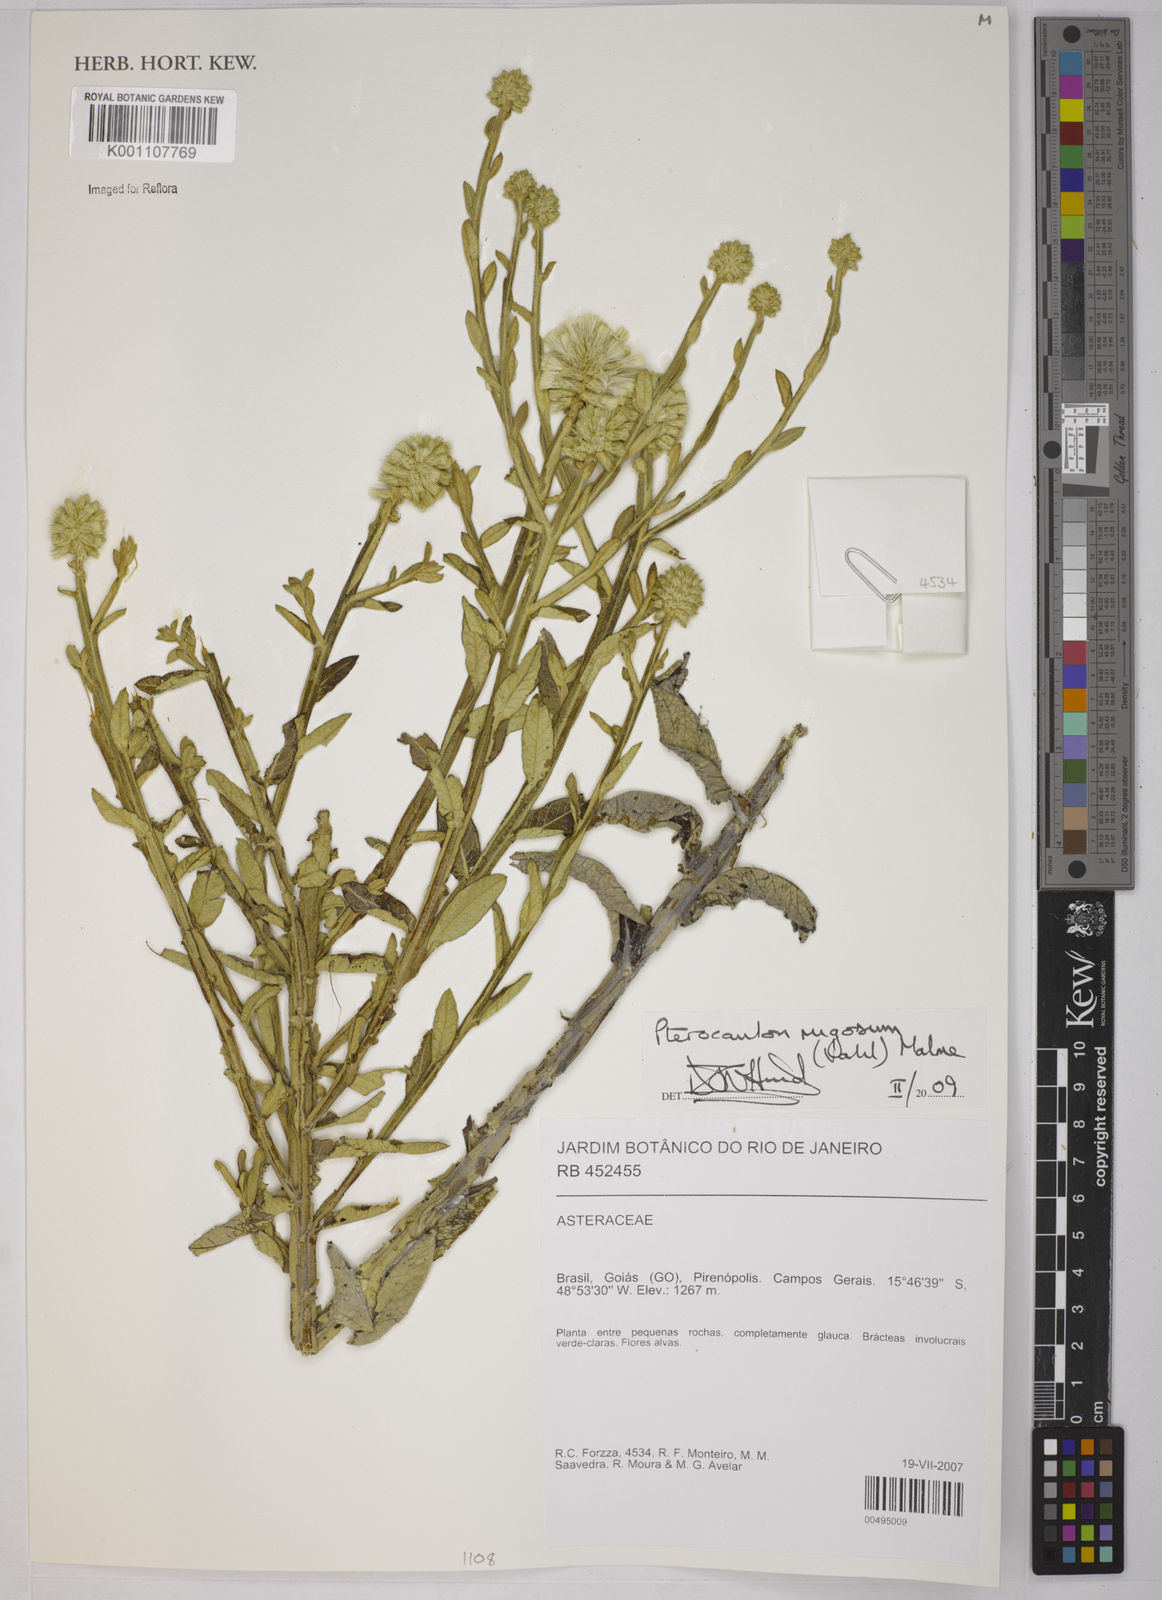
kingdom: Plantae
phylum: Tracheophyta
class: Magnoliopsida
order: Asterales
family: Asteraceae
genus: Pterocaulon
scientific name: Pterocaulon angustifolium
